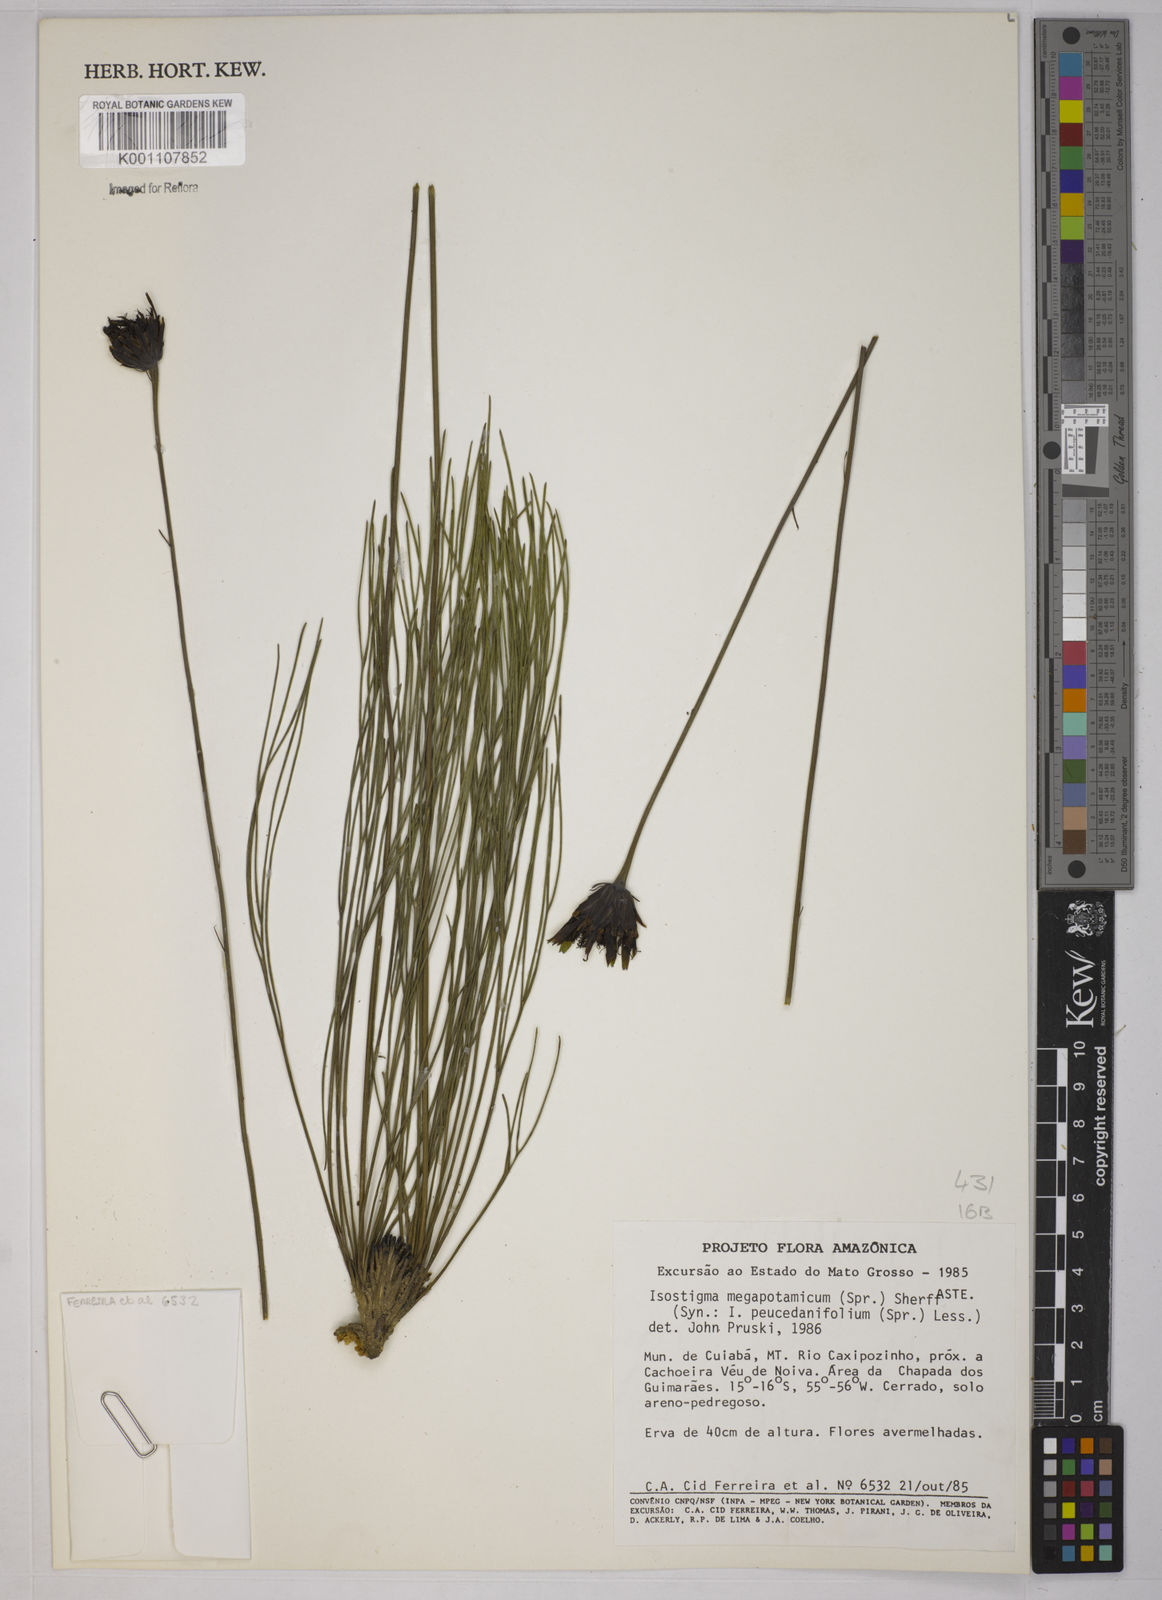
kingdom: Plantae
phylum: Tracheophyta
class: Magnoliopsida
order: Asterales
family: Asteraceae
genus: Isostigma
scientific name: Isostigma
